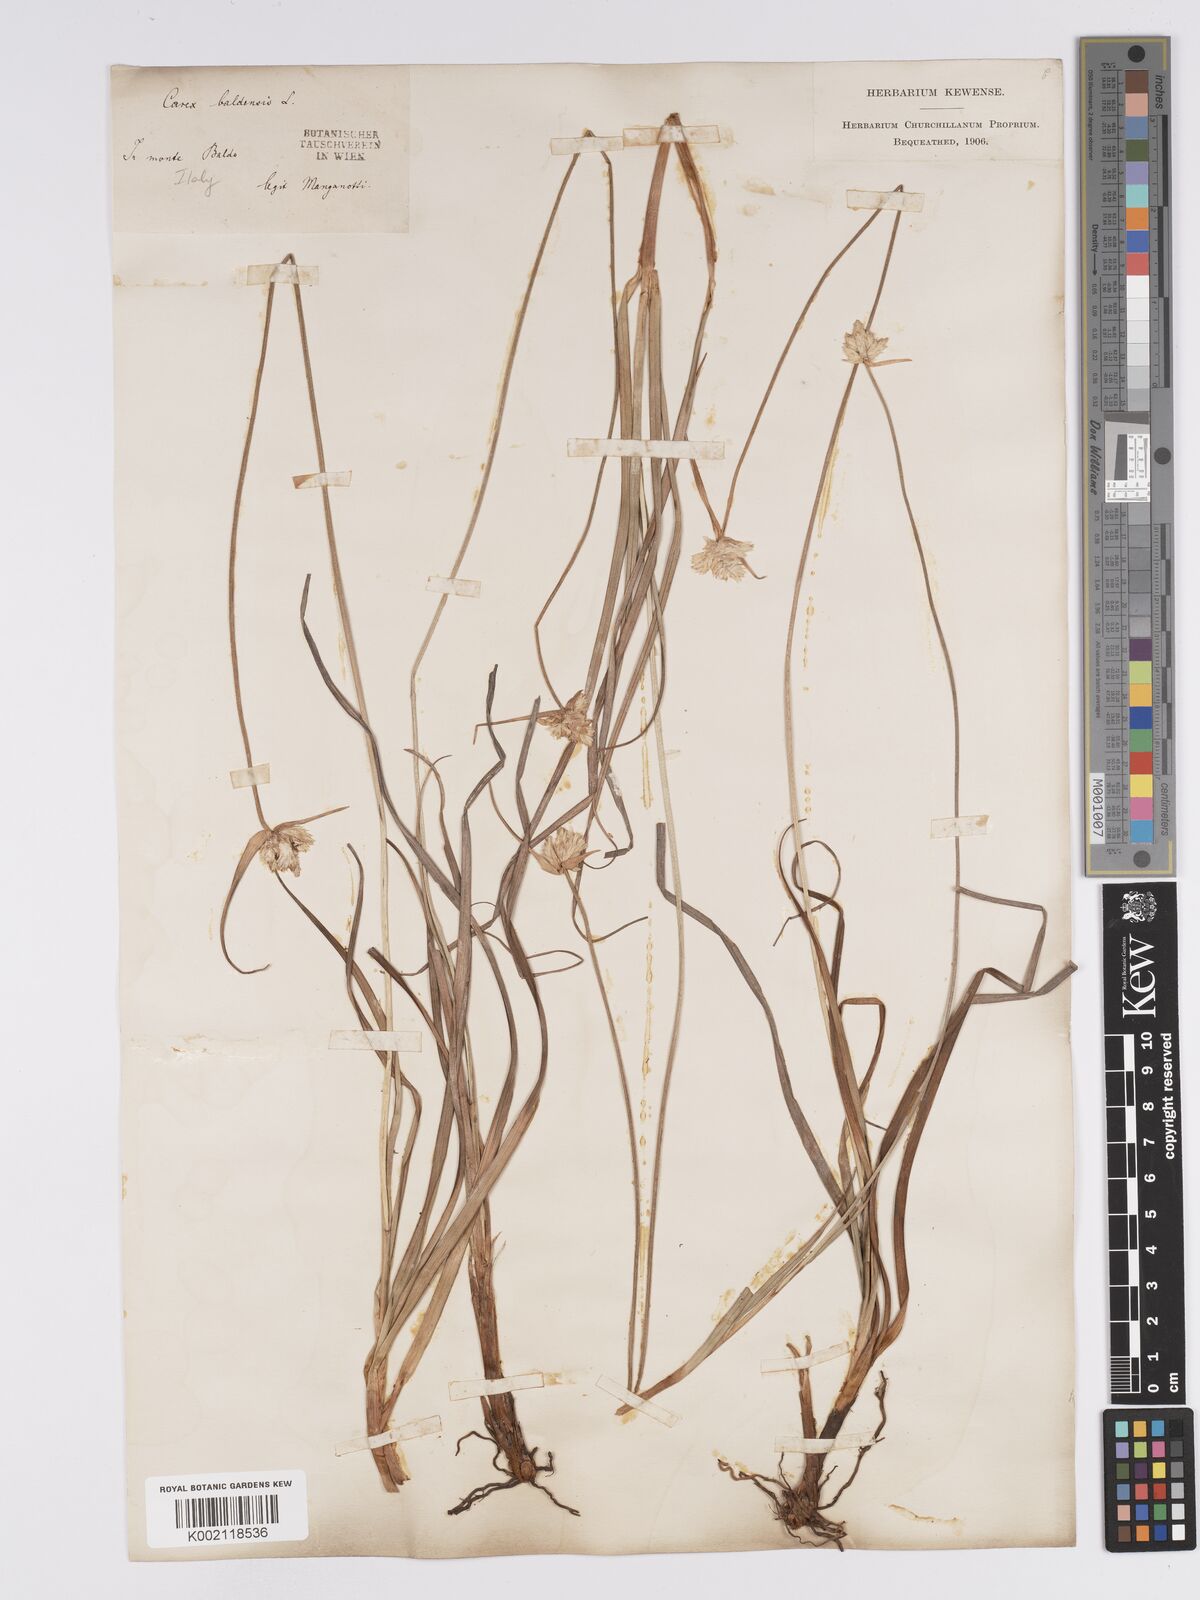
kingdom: Plantae
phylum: Tracheophyta
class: Liliopsida
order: Poales
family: Cyperaceae
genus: Carex
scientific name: Carex baldensis
